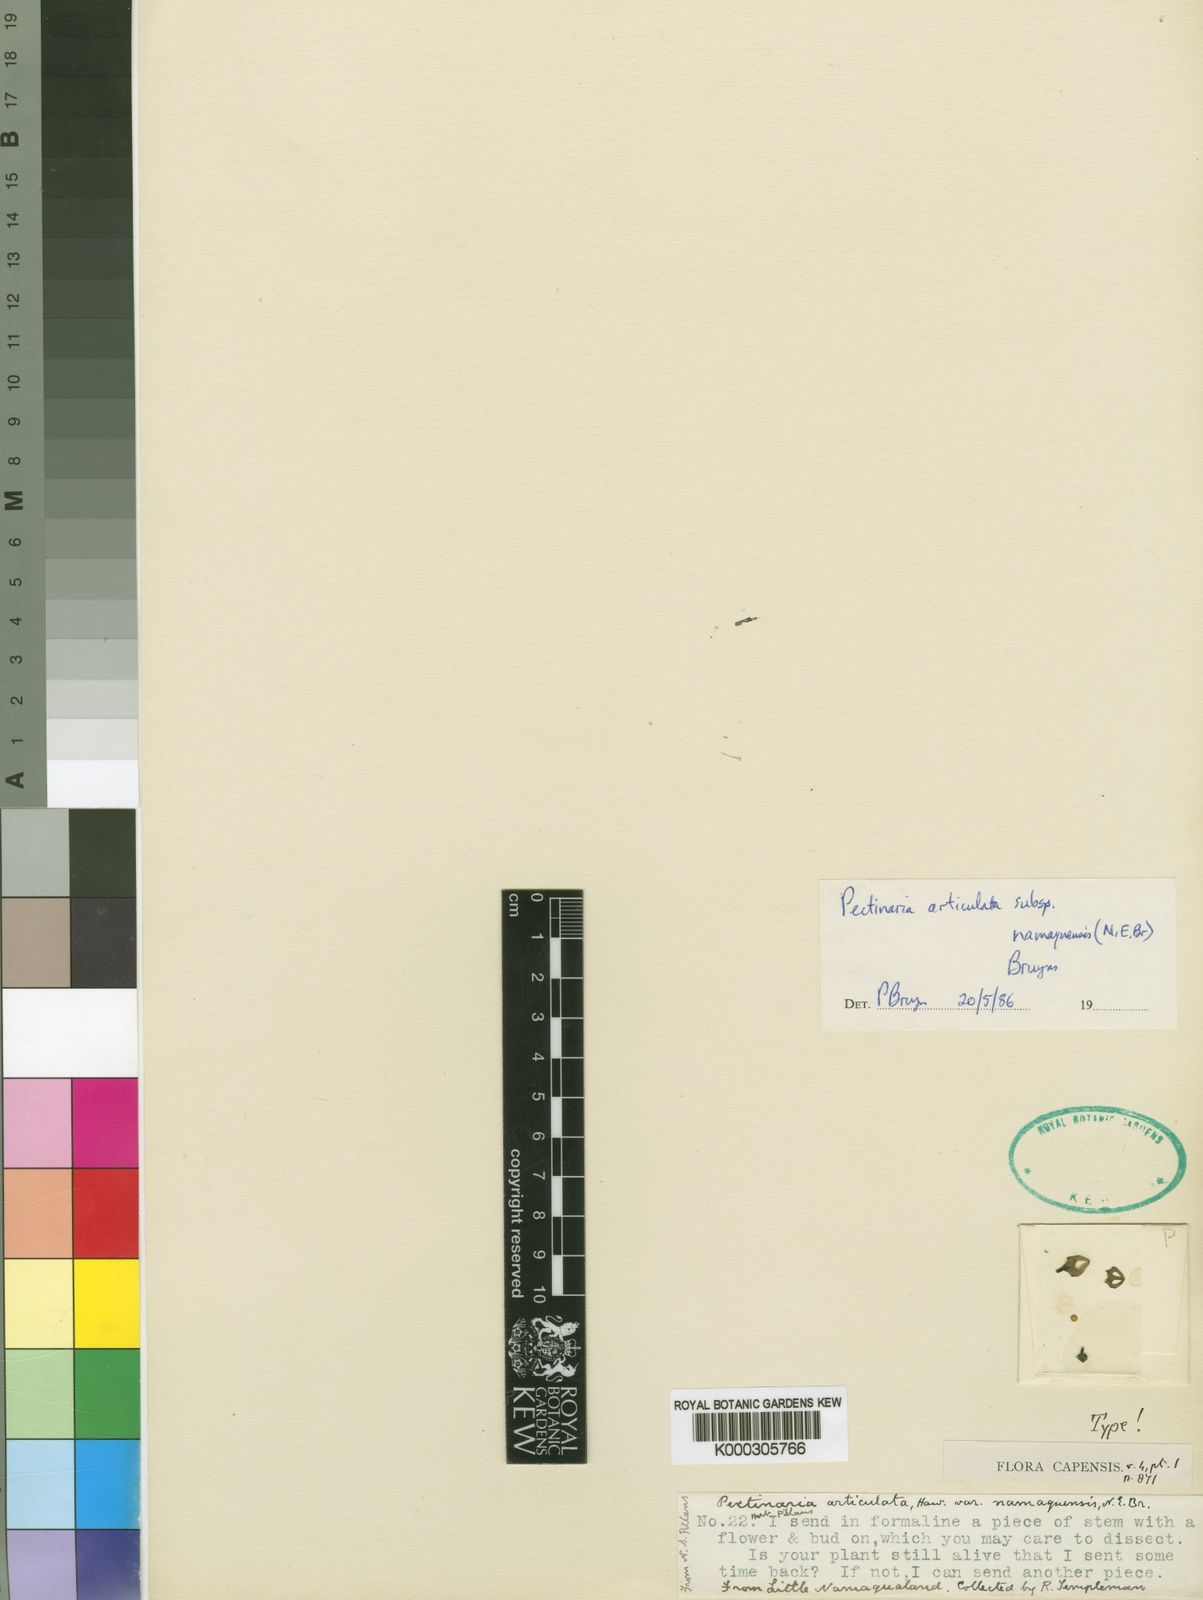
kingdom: Plantae
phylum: Tracheophyta
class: Magnoliopsida
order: Gentianales
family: Apocynaceae
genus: Ceropegia
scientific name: Ceropegia articulata
